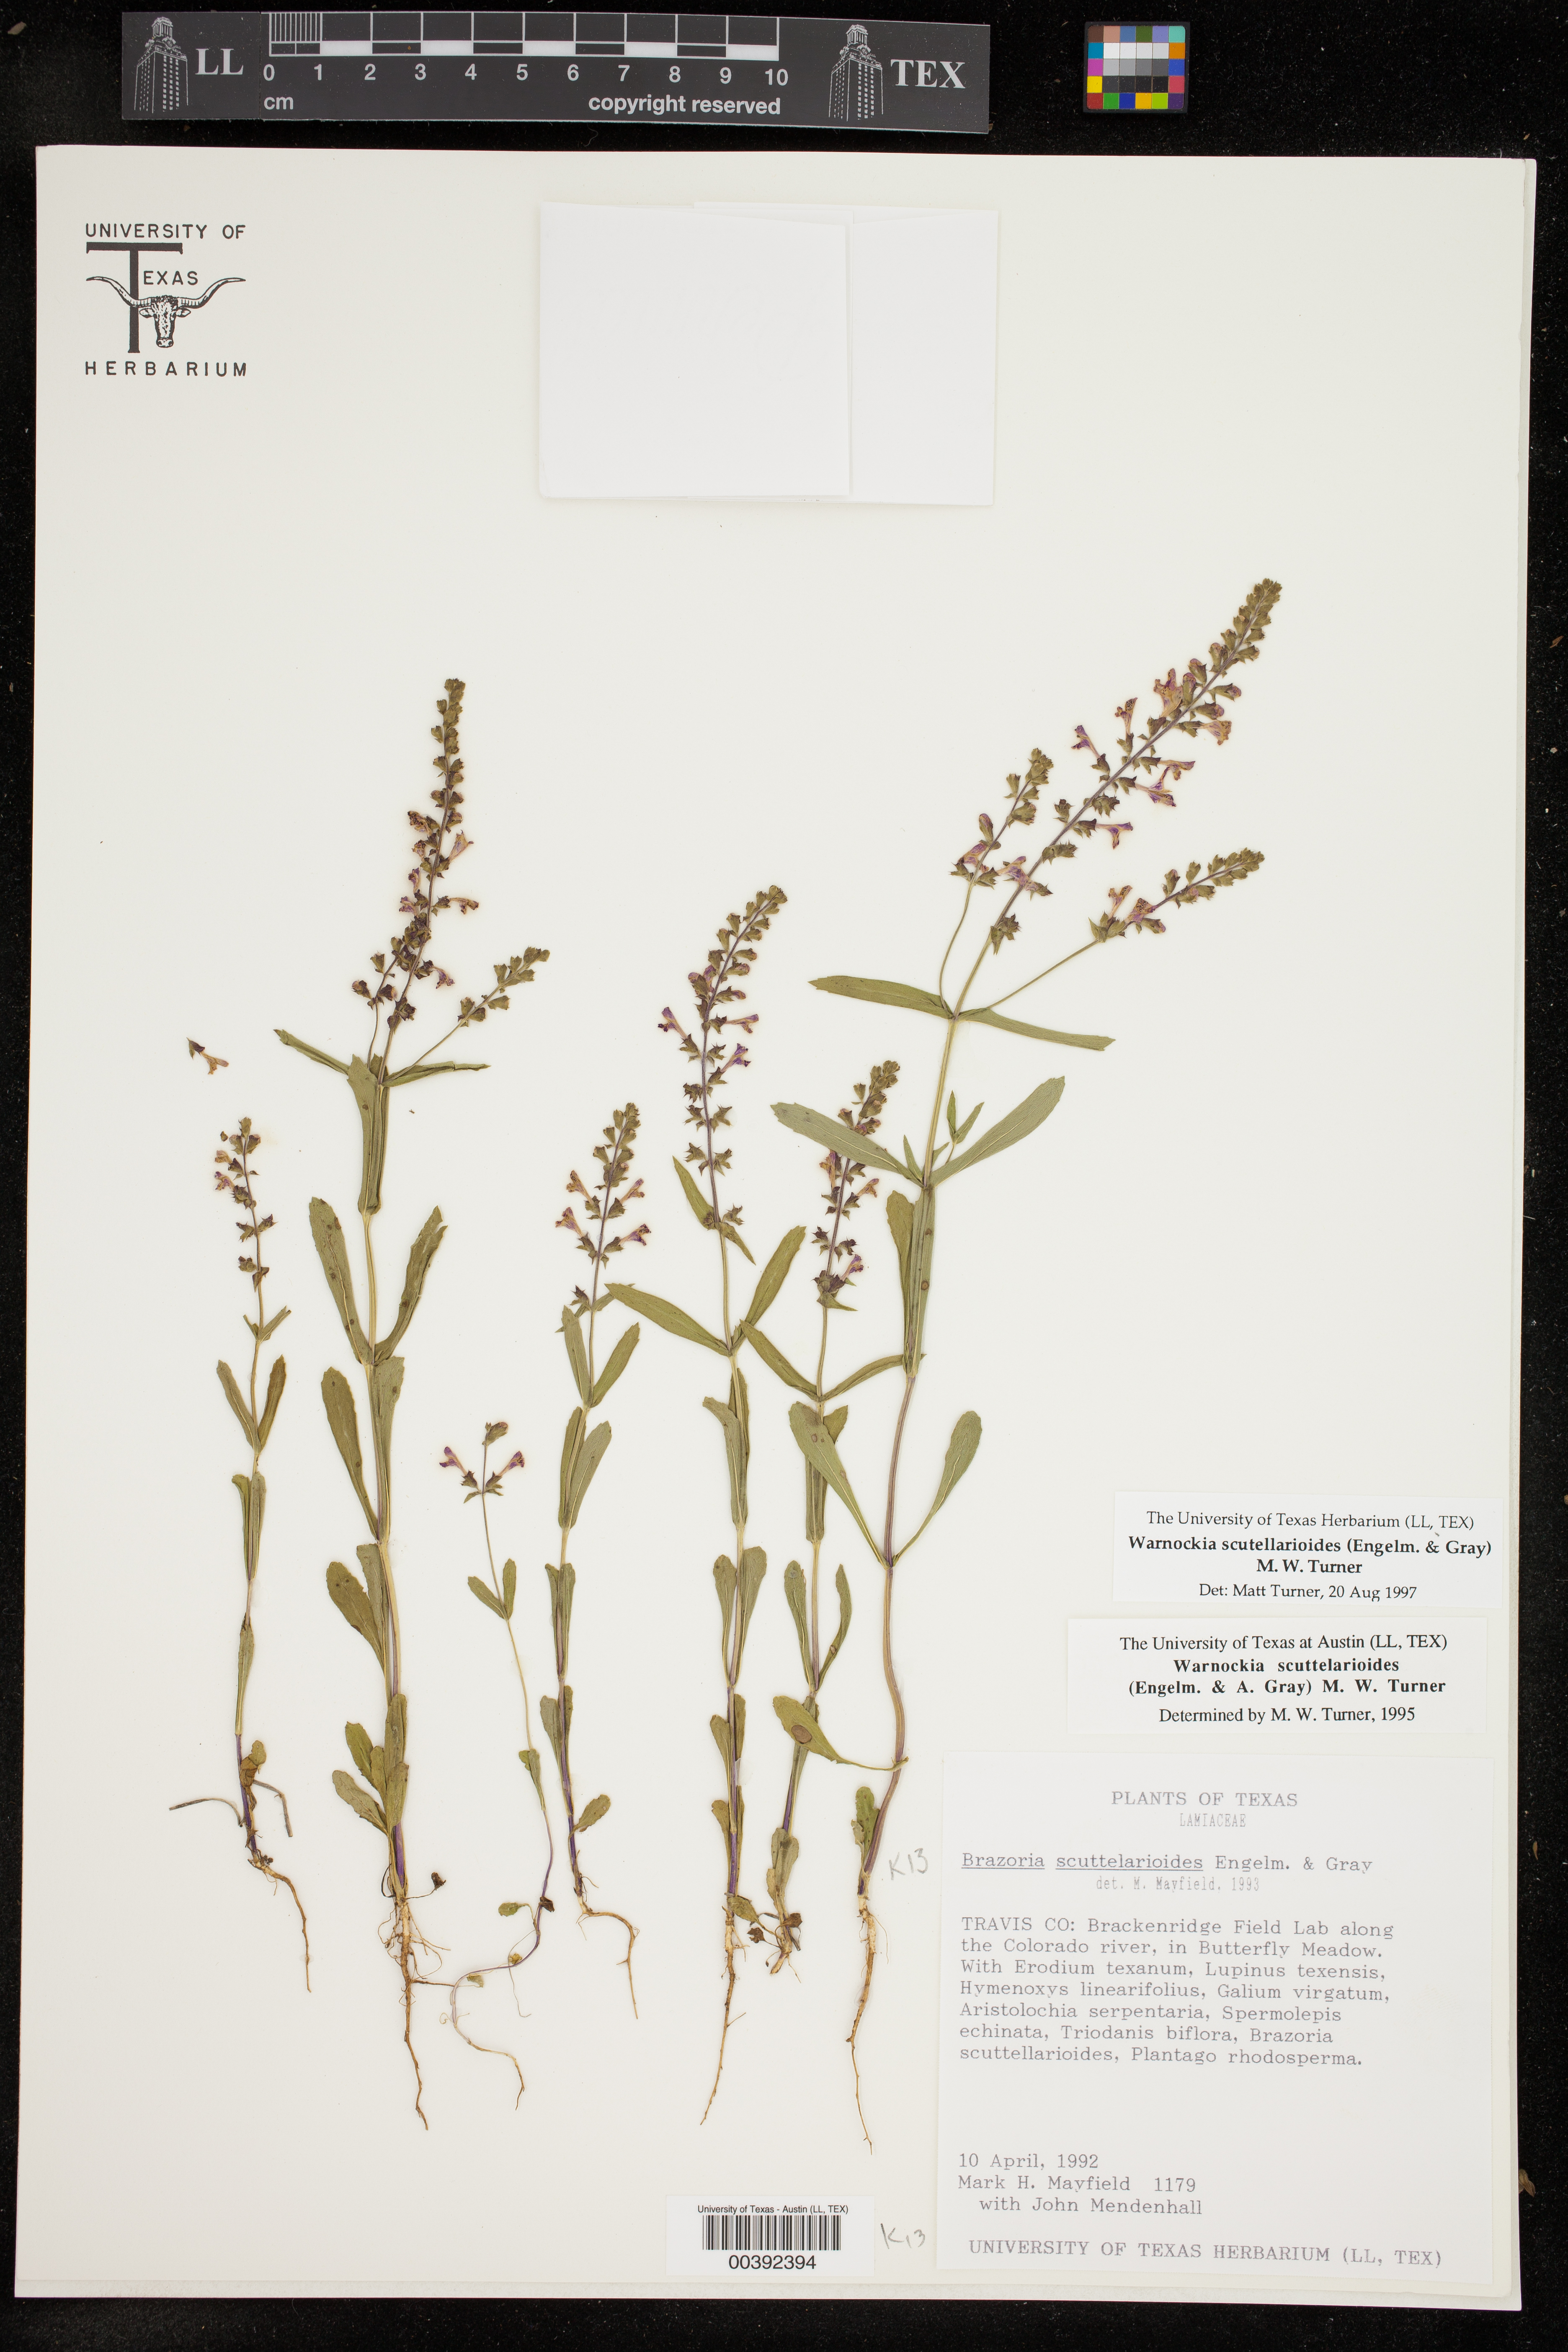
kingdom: Plantae
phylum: Tracheophyta
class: Magnoliopsida
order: Lamiales
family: Lamiaceae
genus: Warnockia
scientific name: Warnockia scutellarioides
